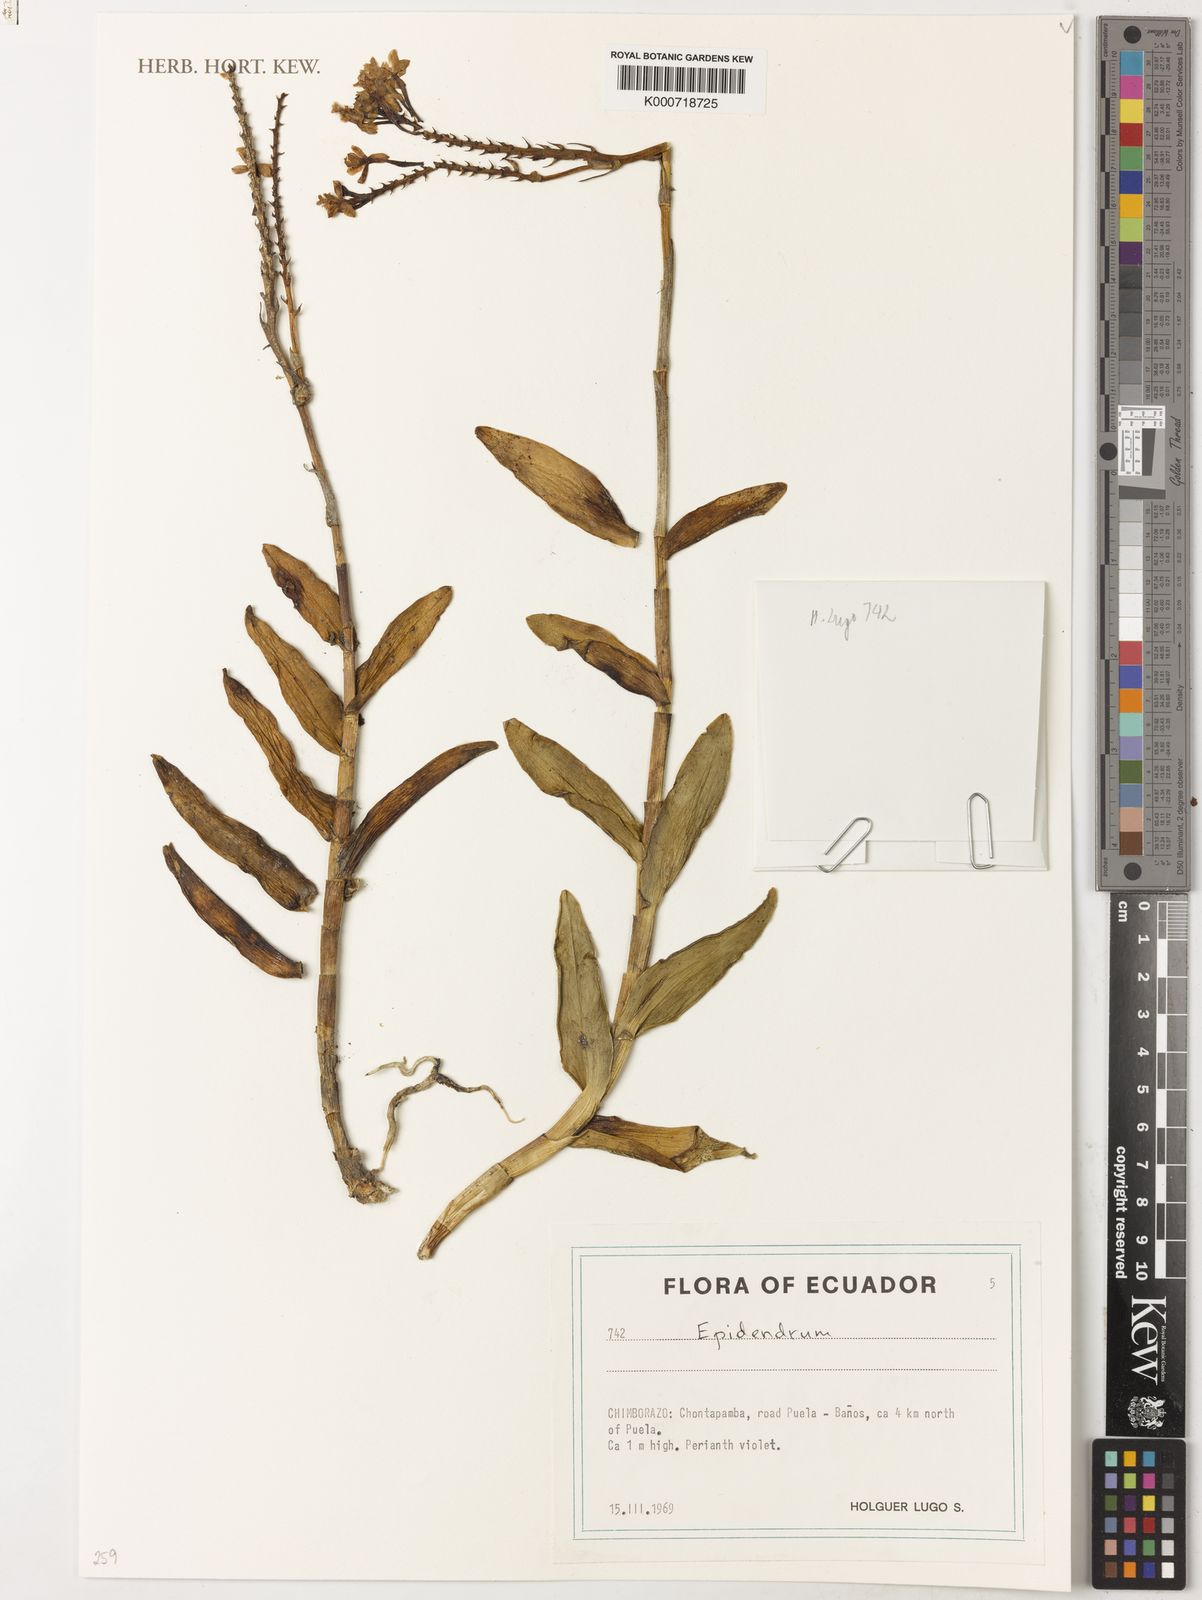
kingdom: Plantae
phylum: Tracheophyta
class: Liliopsida
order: Asparagales
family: Orchidaceae
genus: Epidendrum
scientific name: Epidendrum
